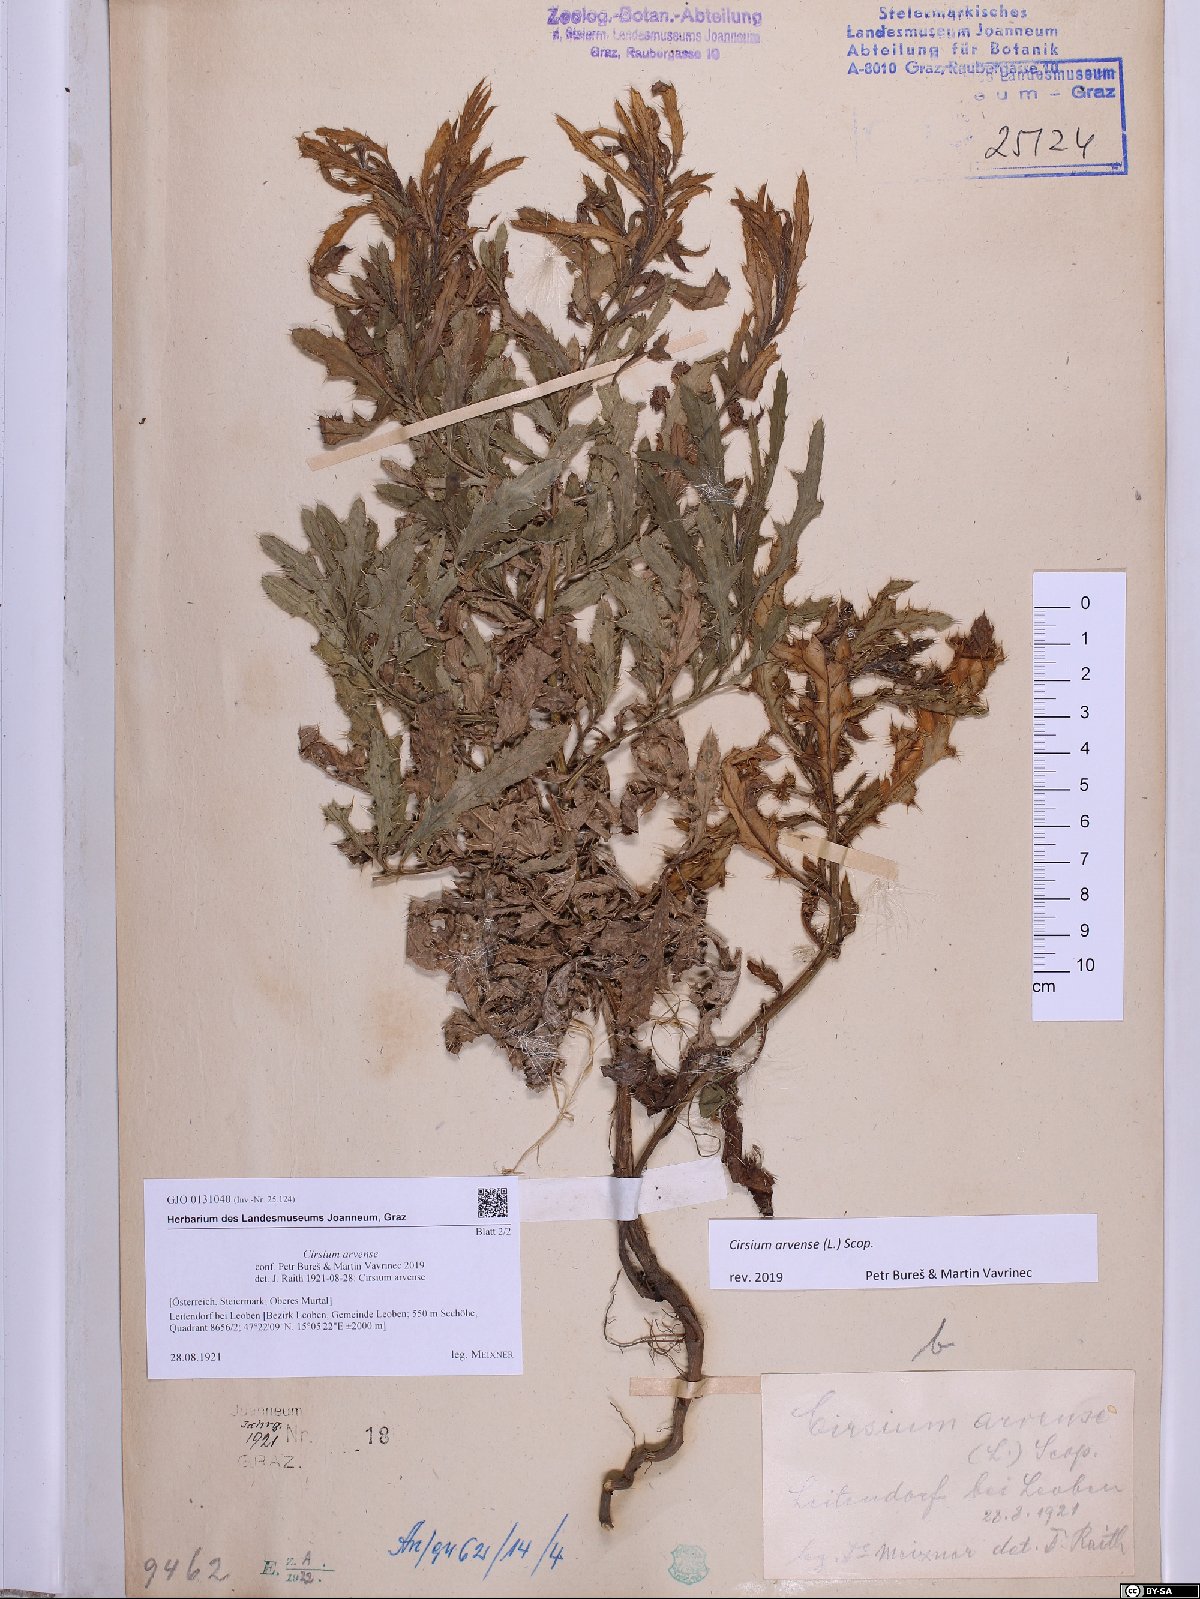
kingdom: Plantae
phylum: Tracheophyta
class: Magnoliopsida
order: Asterales
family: Asteraceae
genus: Cirsium
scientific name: Cirsium arvense
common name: Creeping thistle
